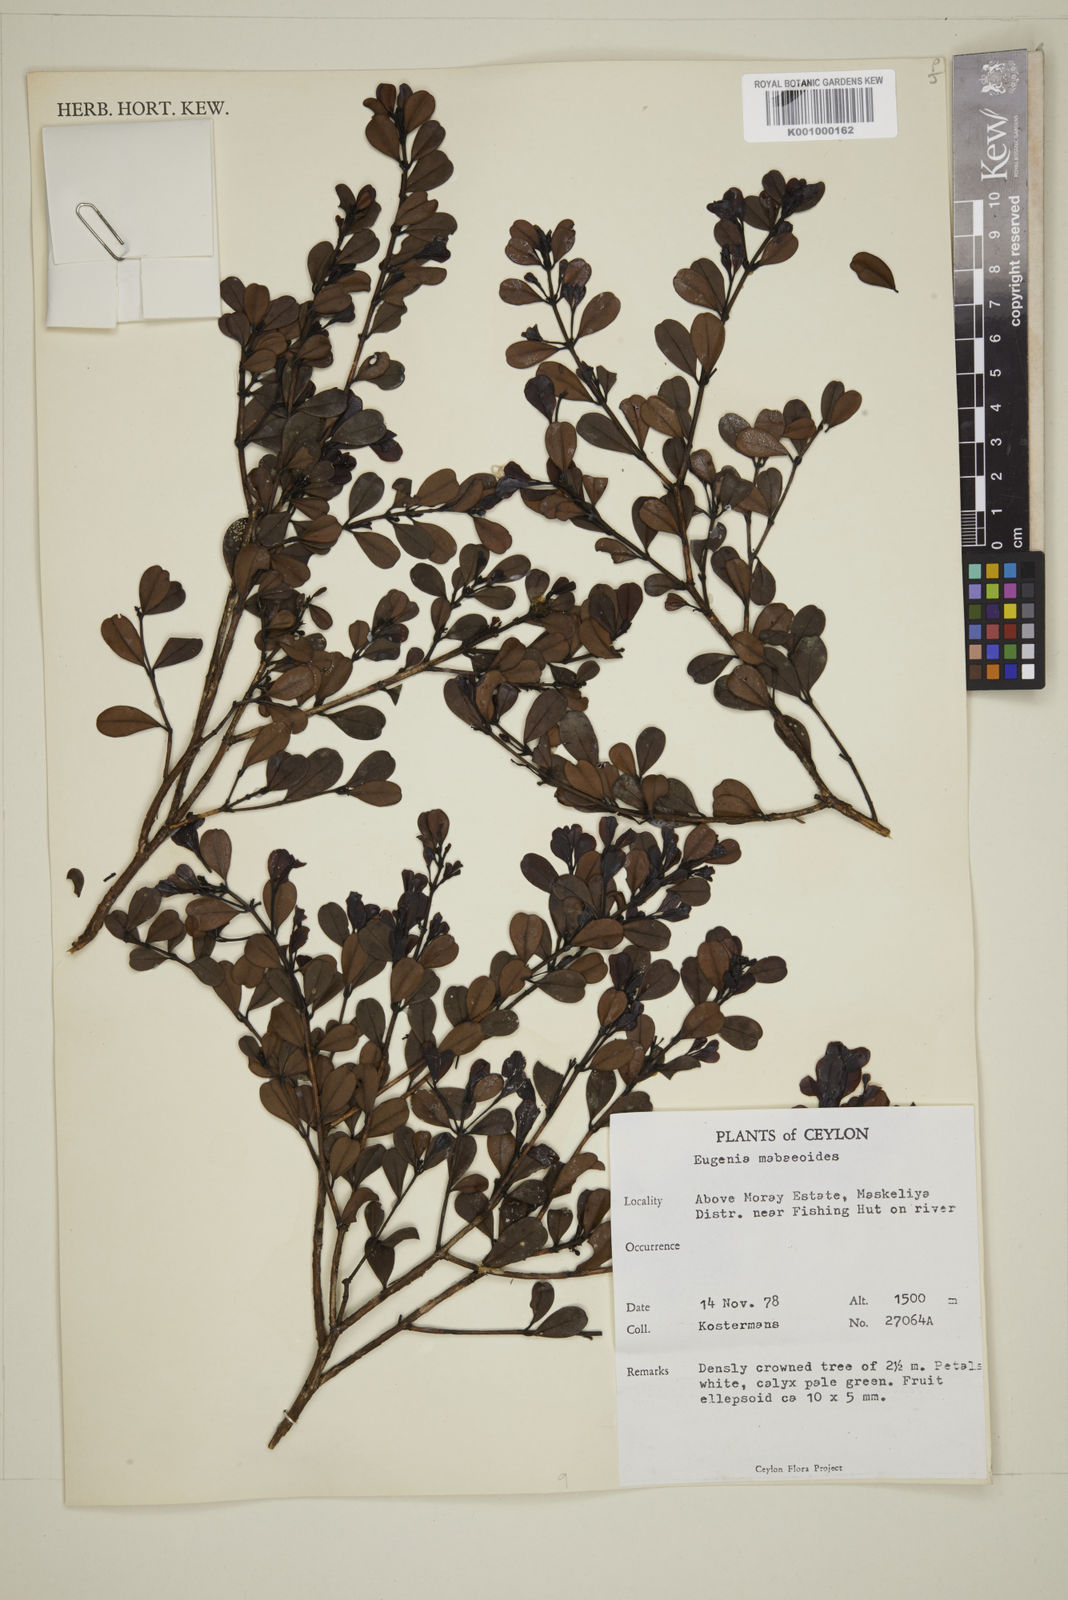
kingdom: Plantae
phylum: Tracheophyta
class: Magnoliopsida
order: Myrtales
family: Myrtaceae
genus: Syzygium
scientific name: Syzygium
